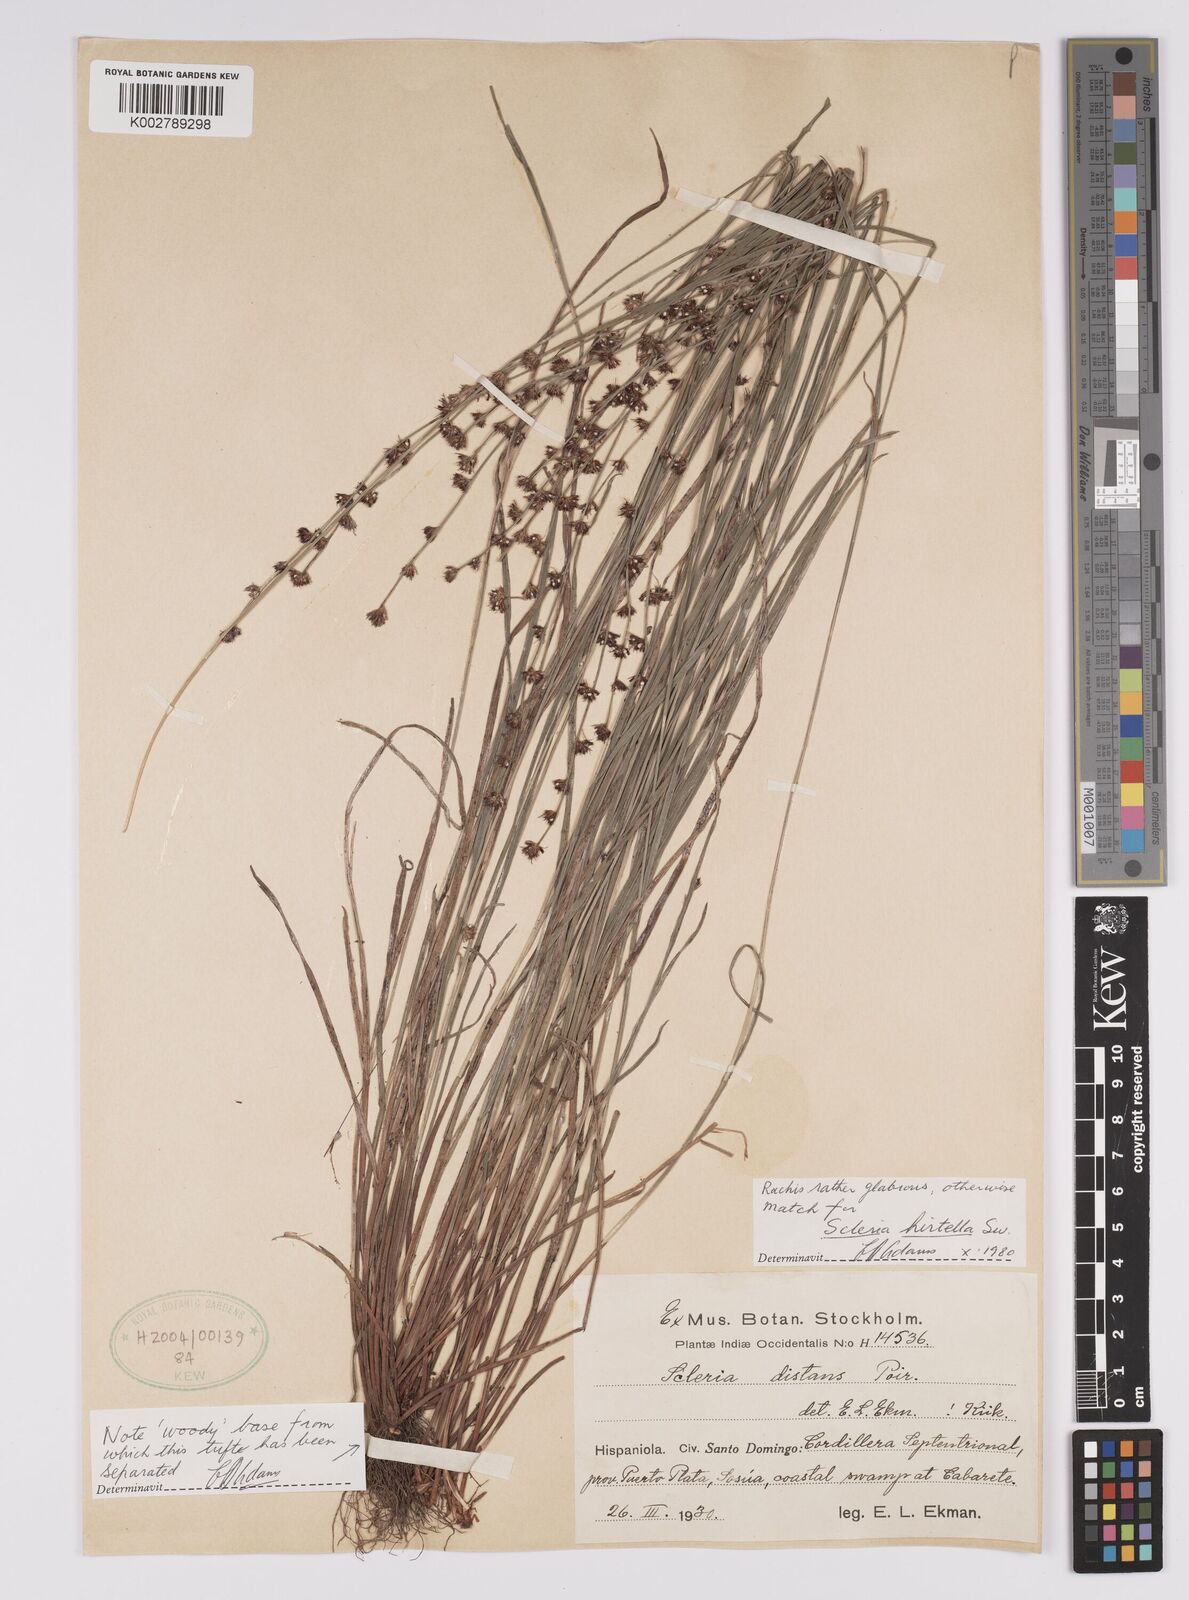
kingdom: Plantae
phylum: Tracheophyta
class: Liliopsida
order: Poales
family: Cyperaceae
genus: Scleria
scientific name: Scleria hirtella
